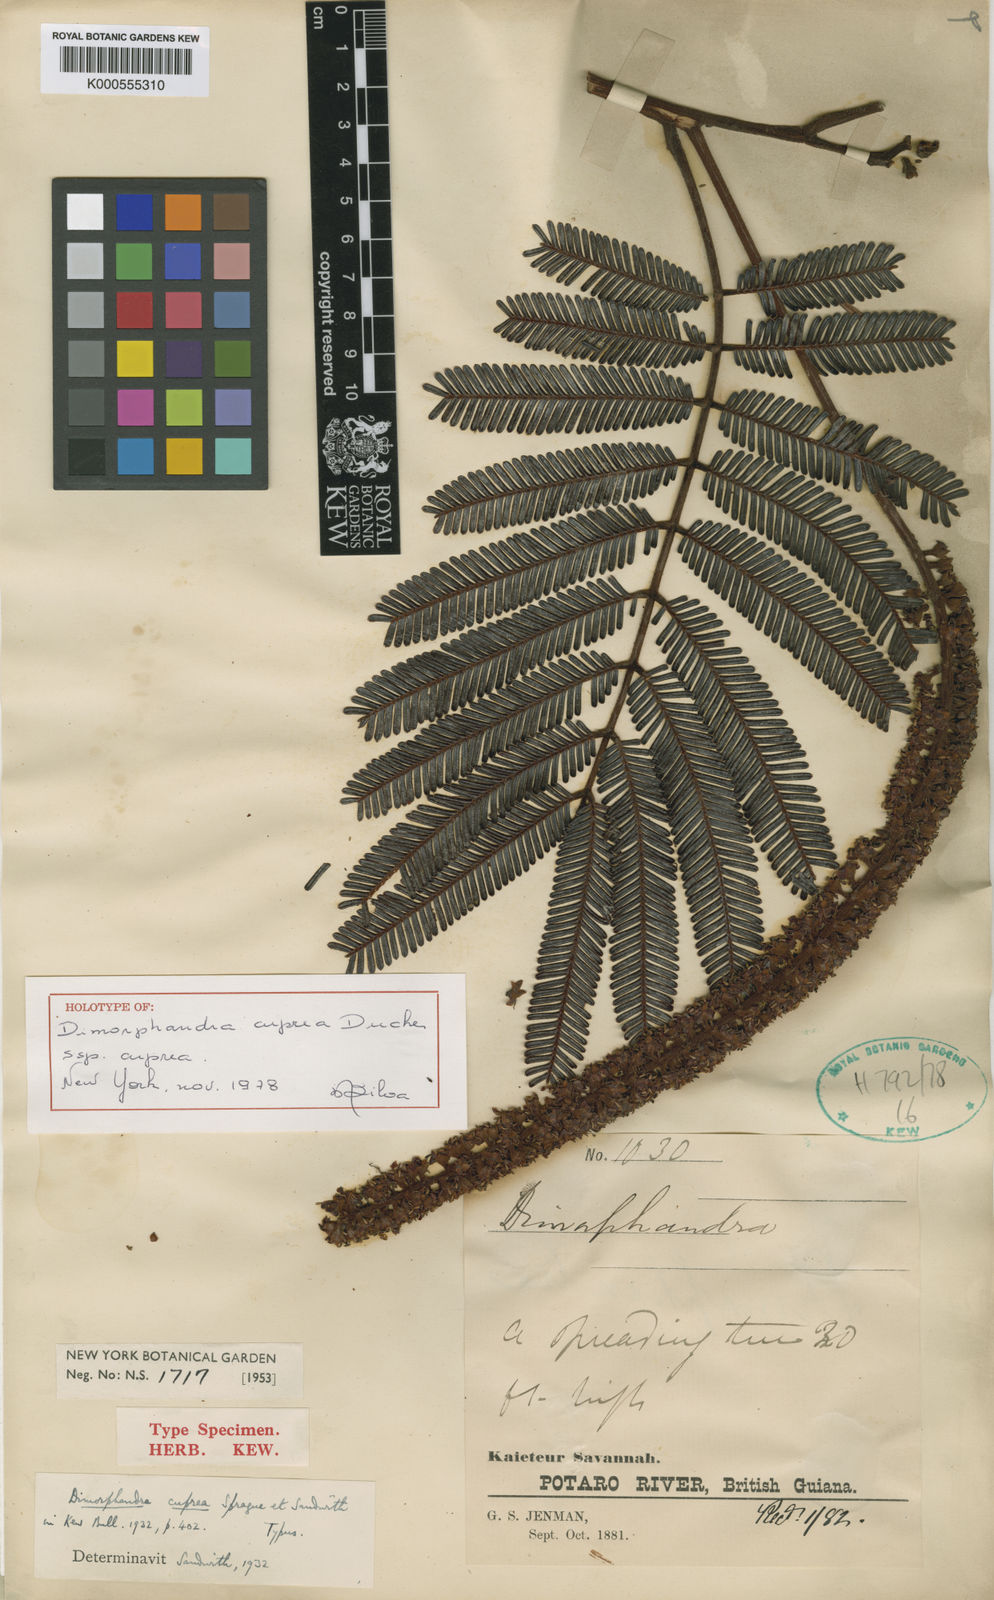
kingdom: Plantae
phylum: Tracheophyta
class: Magnoliopsida
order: Fabales
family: Fabaceae
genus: Dimorphandra
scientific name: Dimorphandra
